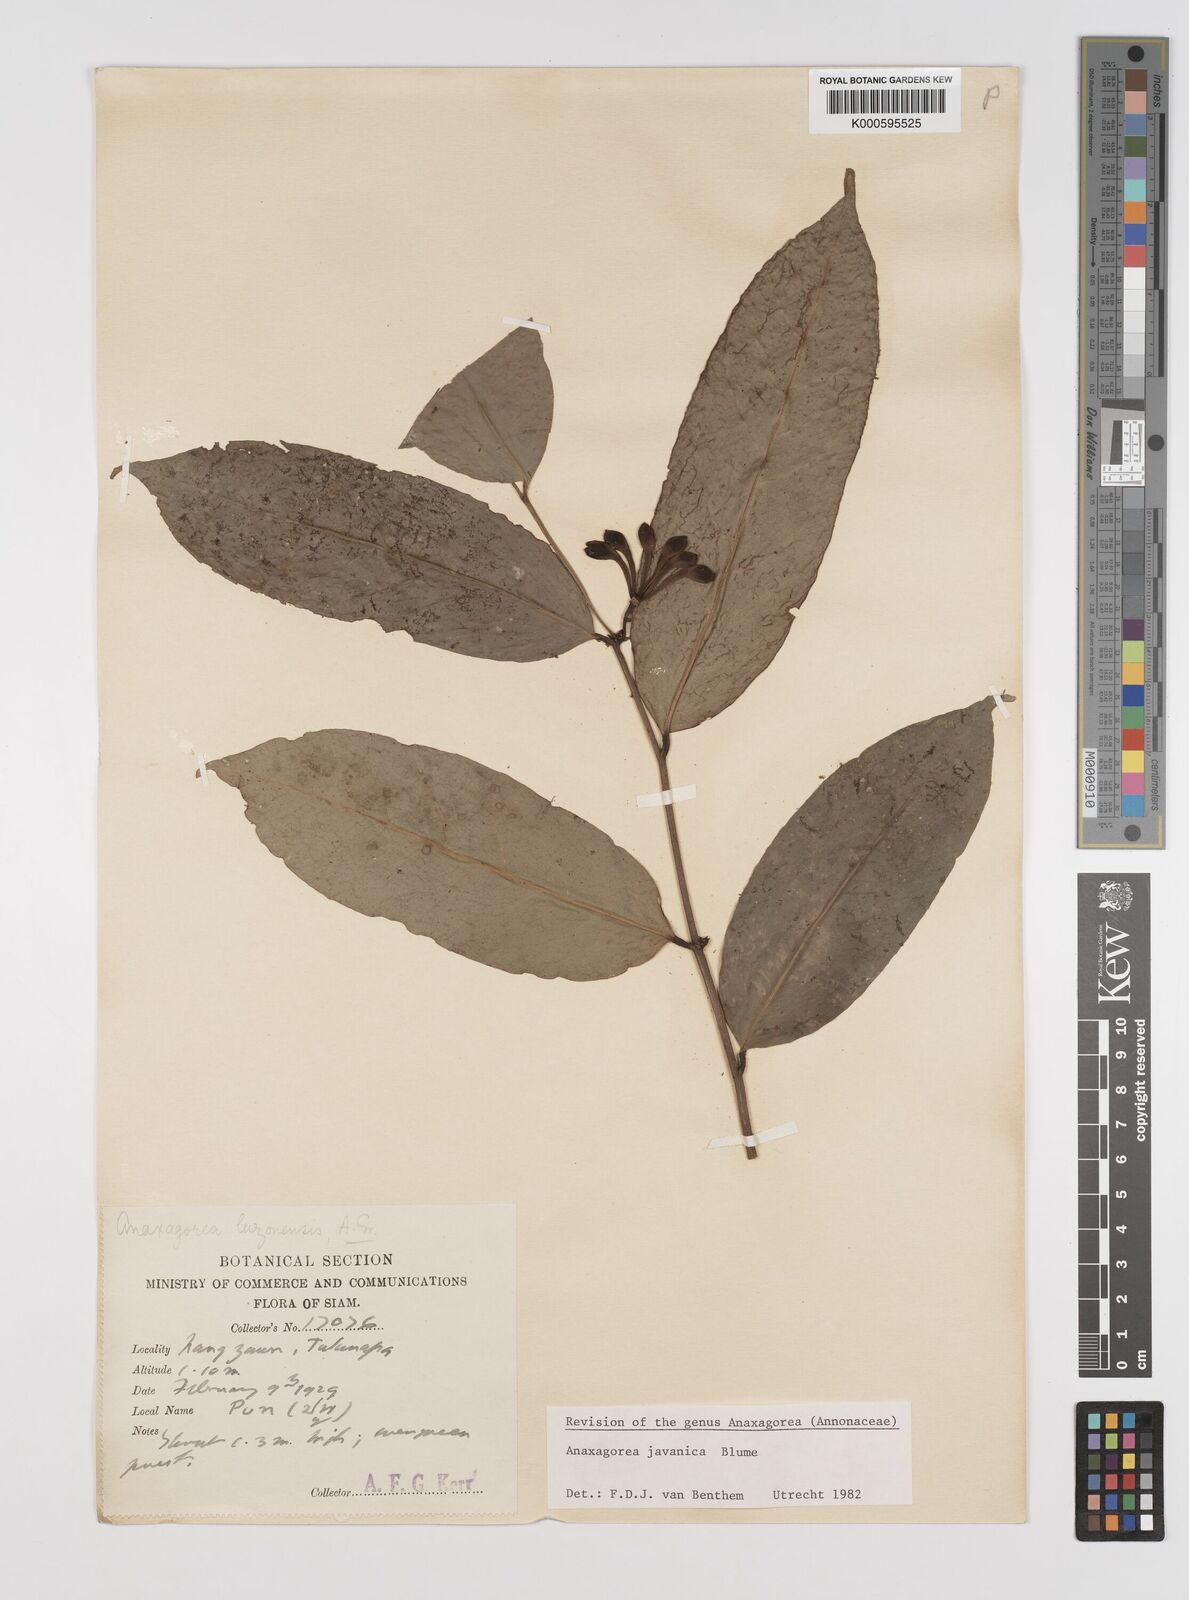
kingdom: Plantae
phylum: Tracheophyta
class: Magnoliopsida
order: Magnoliales
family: Annonaceae
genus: Anaxagorea
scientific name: Anaxagorea javanica
